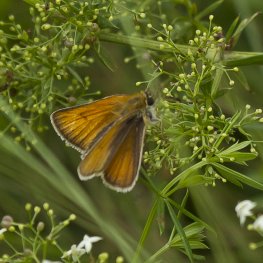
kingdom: Animalia
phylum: Arthropoda
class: Insecta
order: Lepidoptera
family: Hesperiidae
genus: Thymelicus
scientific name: Thymelicus lineola
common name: European Skipper
